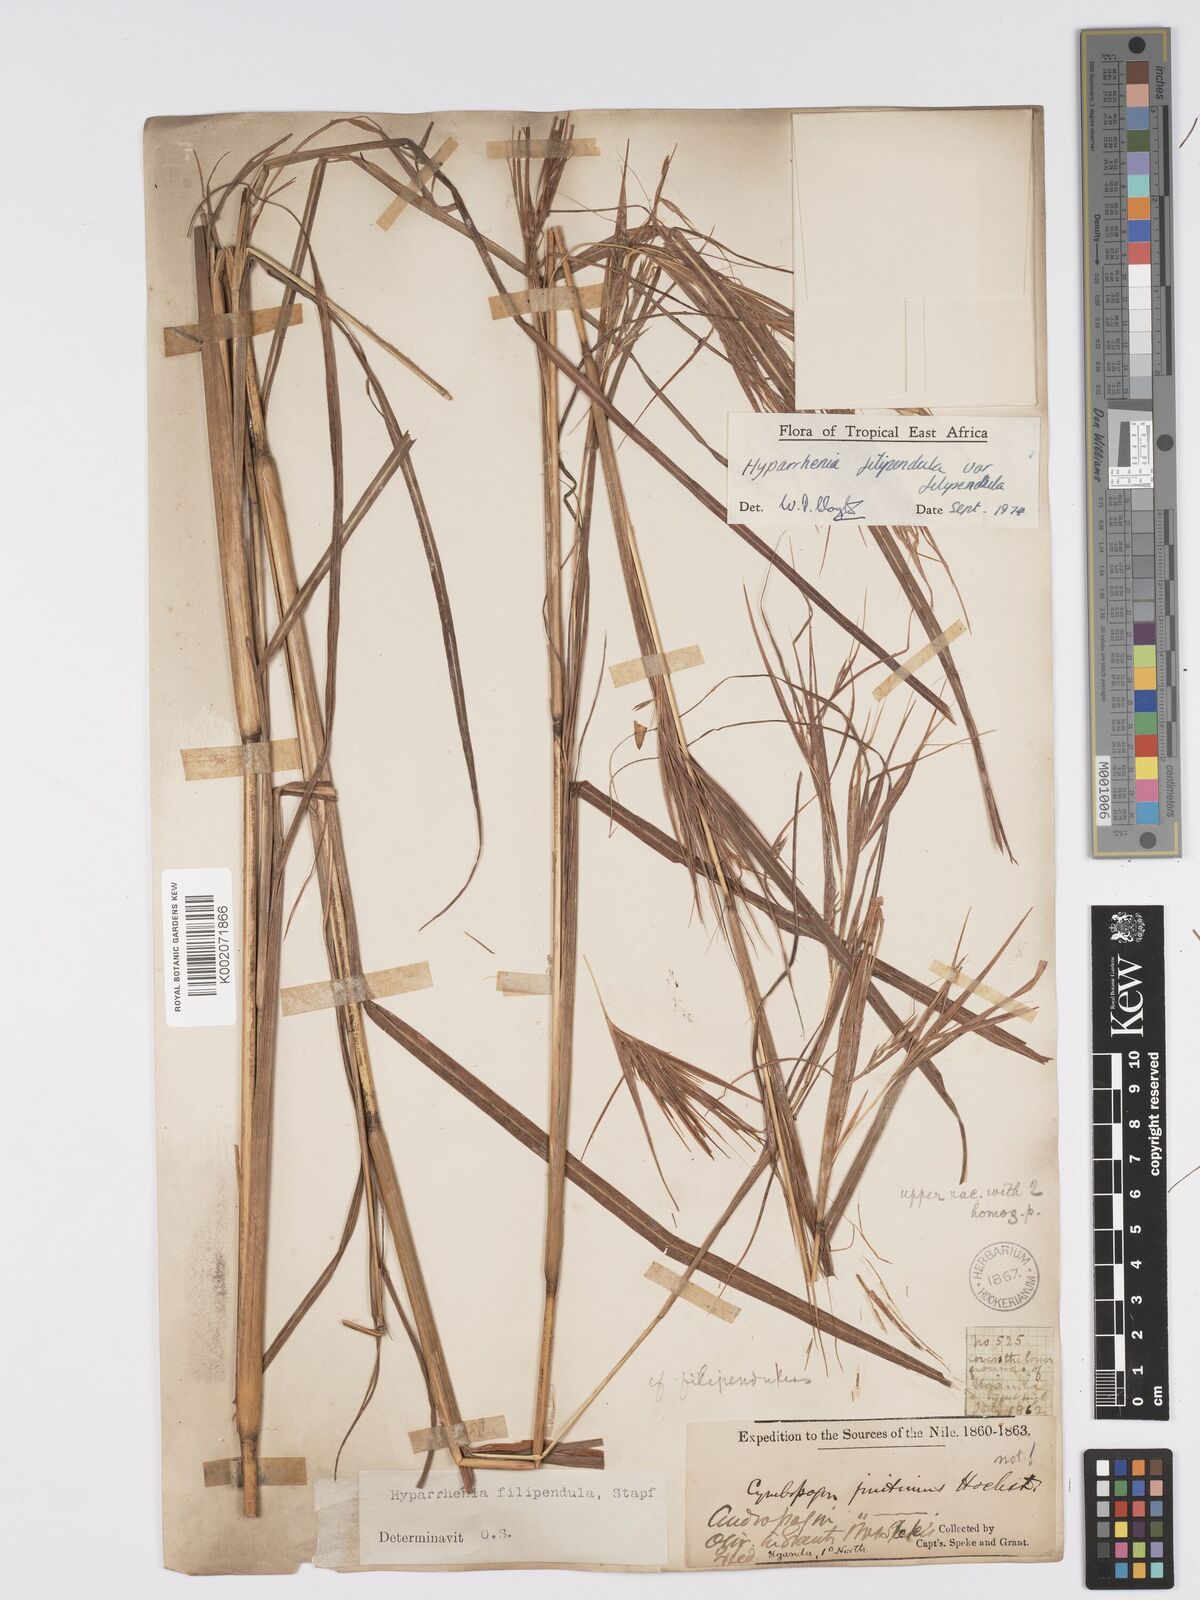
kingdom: Plantae
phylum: Tracheophyta
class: Liliopsida
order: Poales
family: Poaceae
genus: Hyparrhenia
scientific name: Hyparrhenia filipendula
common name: Tambookie grass
